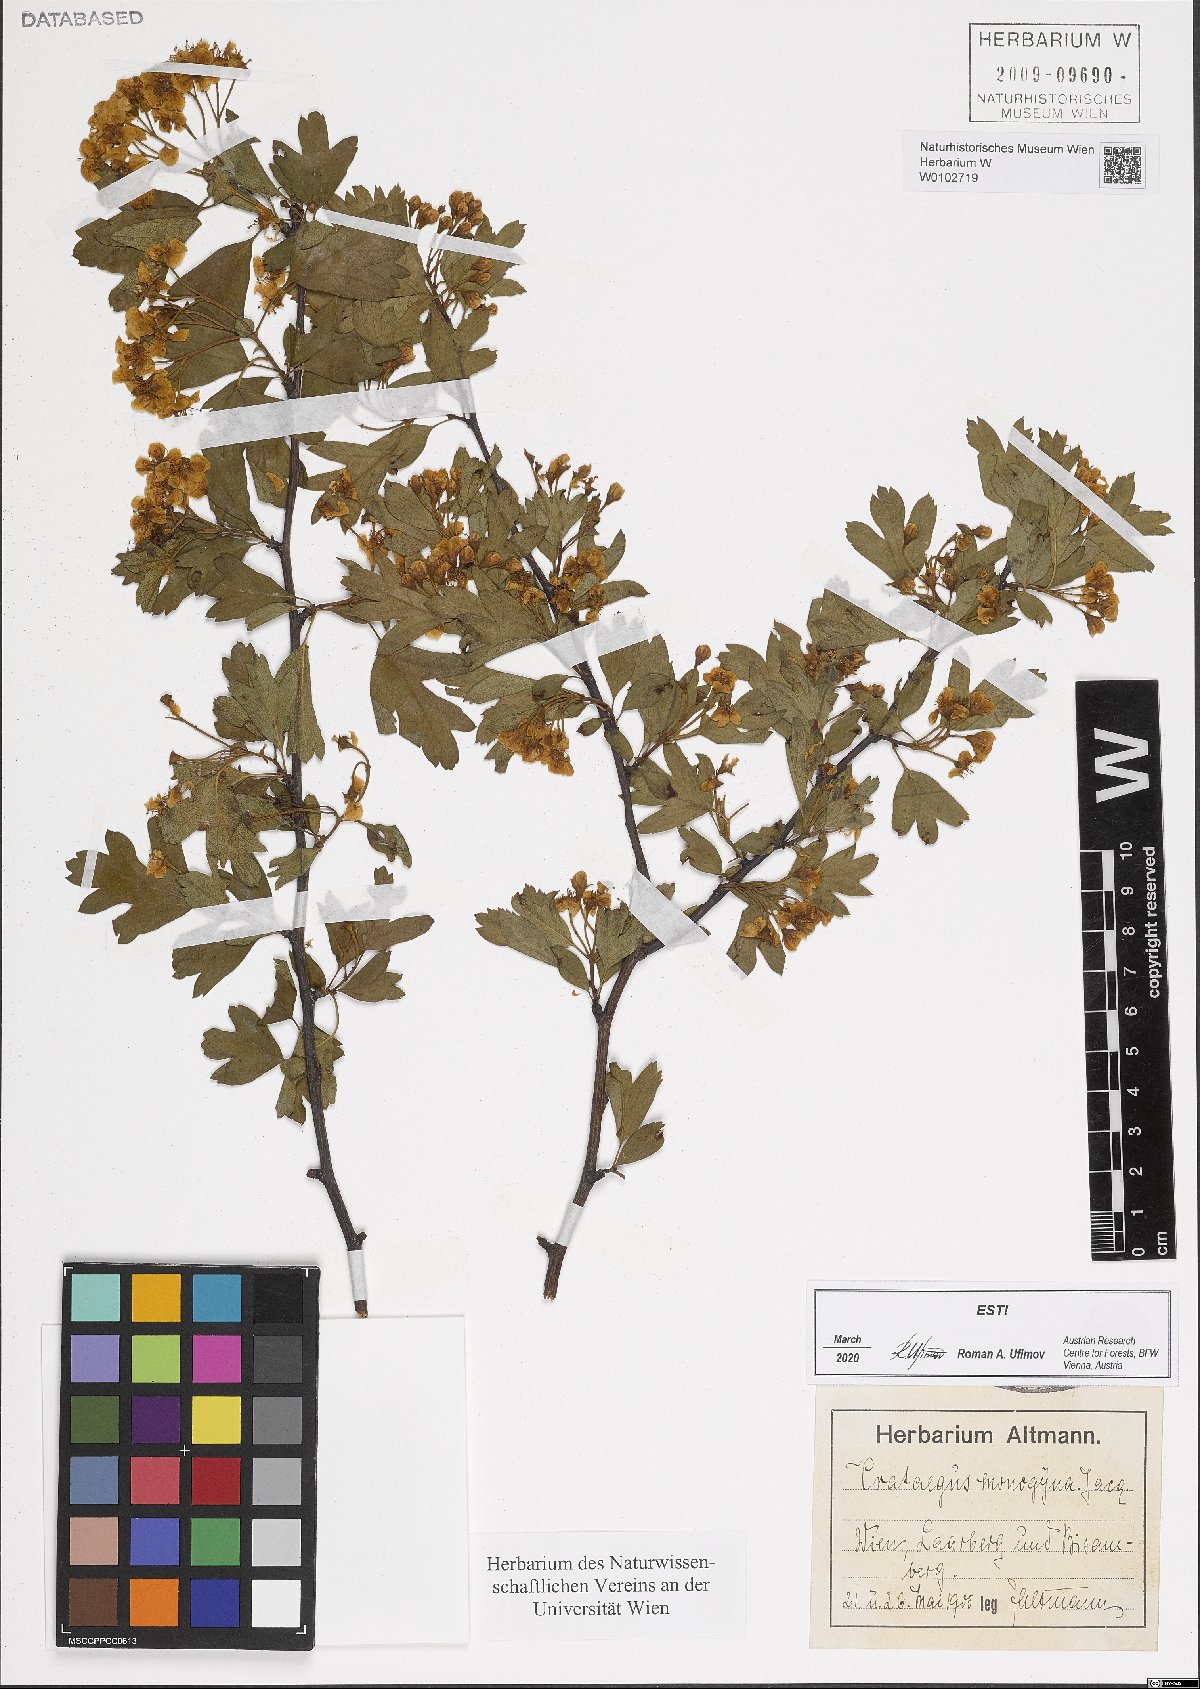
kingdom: Plantae
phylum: Tracheophyta
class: Magnoliopsida
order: Rosales
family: Rosaceae
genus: Crataegus
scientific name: Crataegus monogyna
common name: Hawthorn
